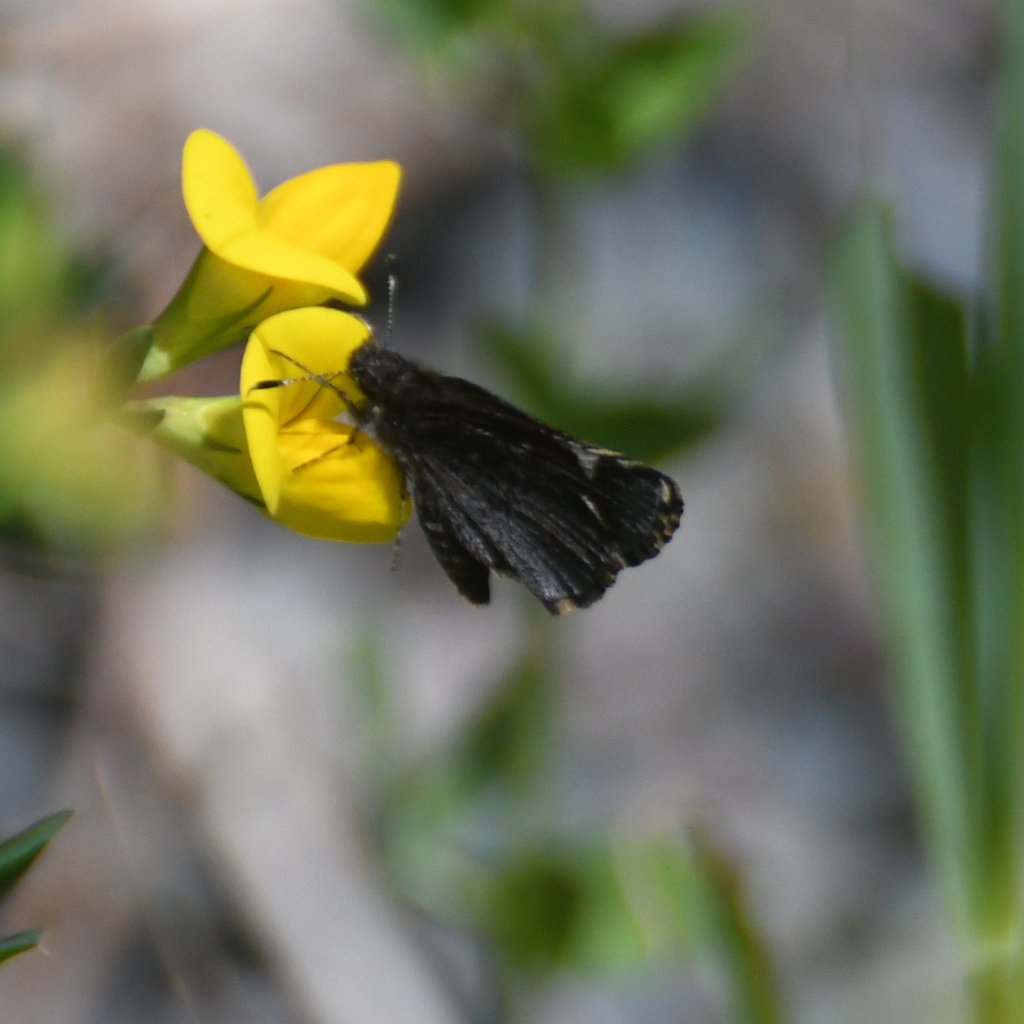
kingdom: Animalia
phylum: Arthropoda
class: Insecta
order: Lepidoptera
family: Hesperiidae
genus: Mastor
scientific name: Mastor vialis
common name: Common Roadside-Skipper
